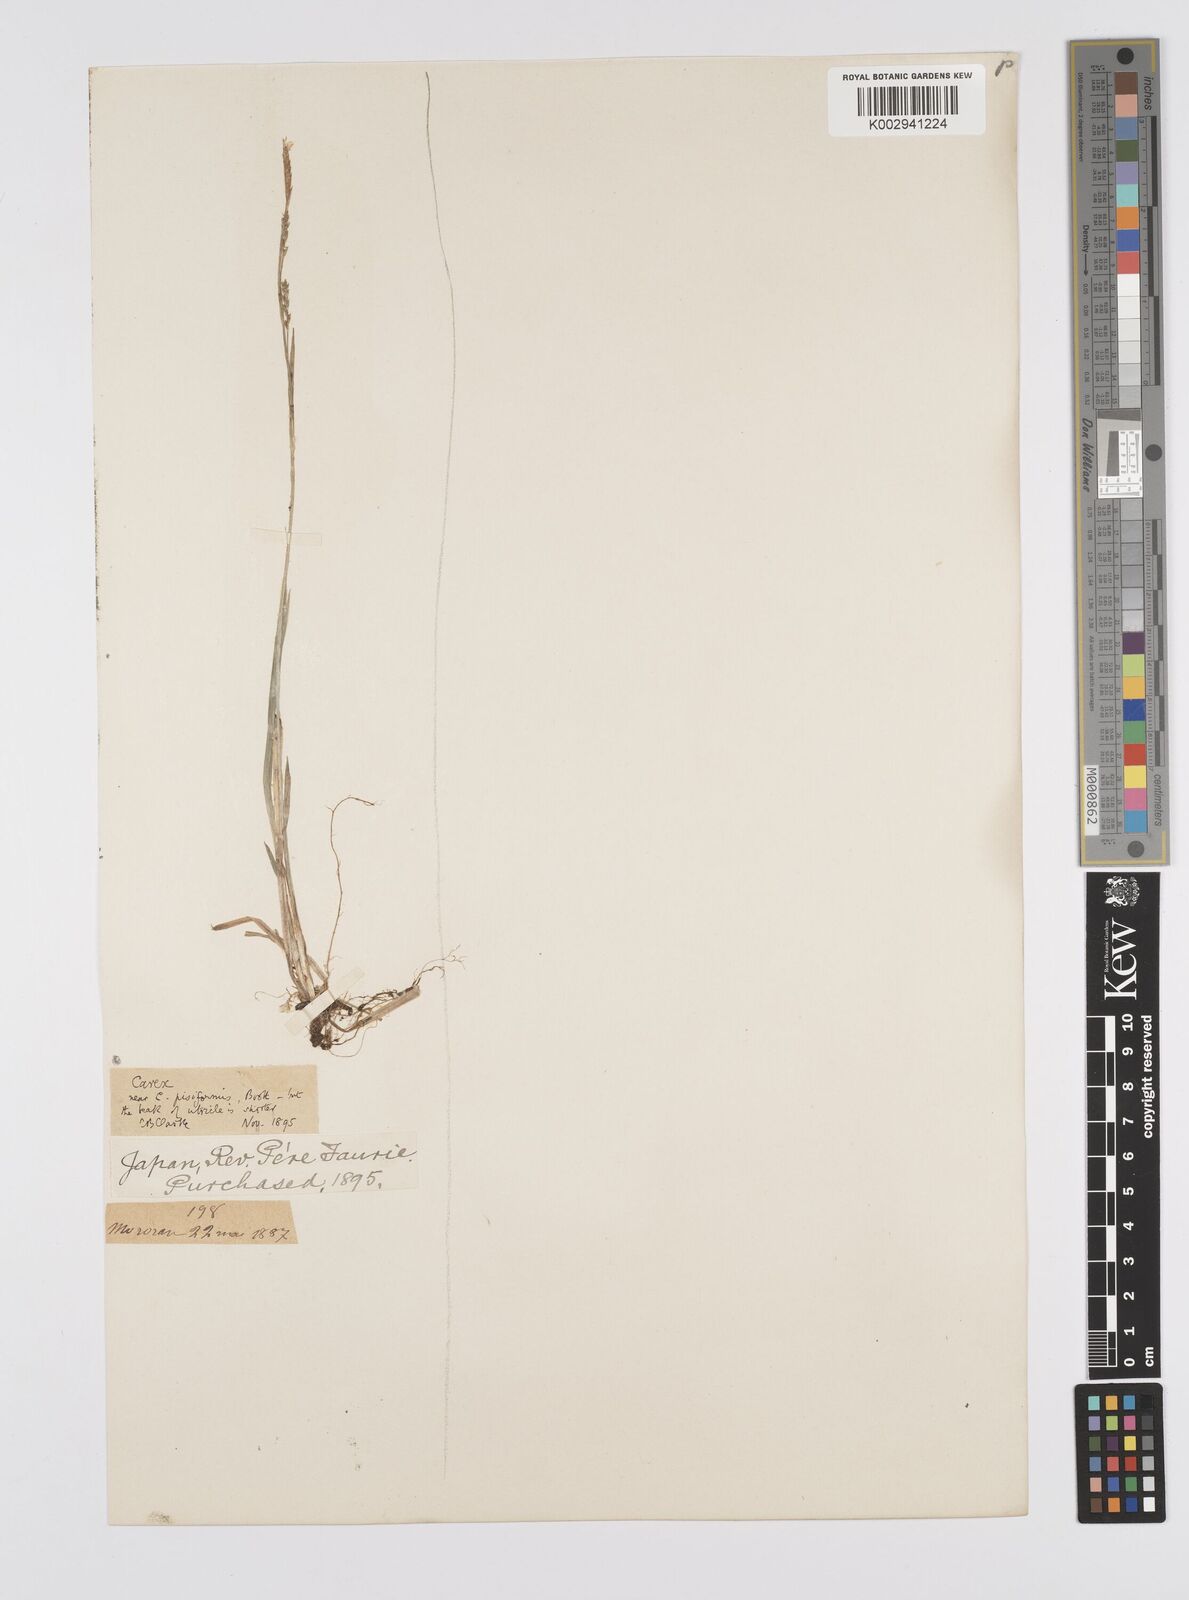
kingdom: Plantae
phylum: Tracheophyta
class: Liliopsida
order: Poales
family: Cyperaceae
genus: Carex
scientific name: Carex pisiformis
